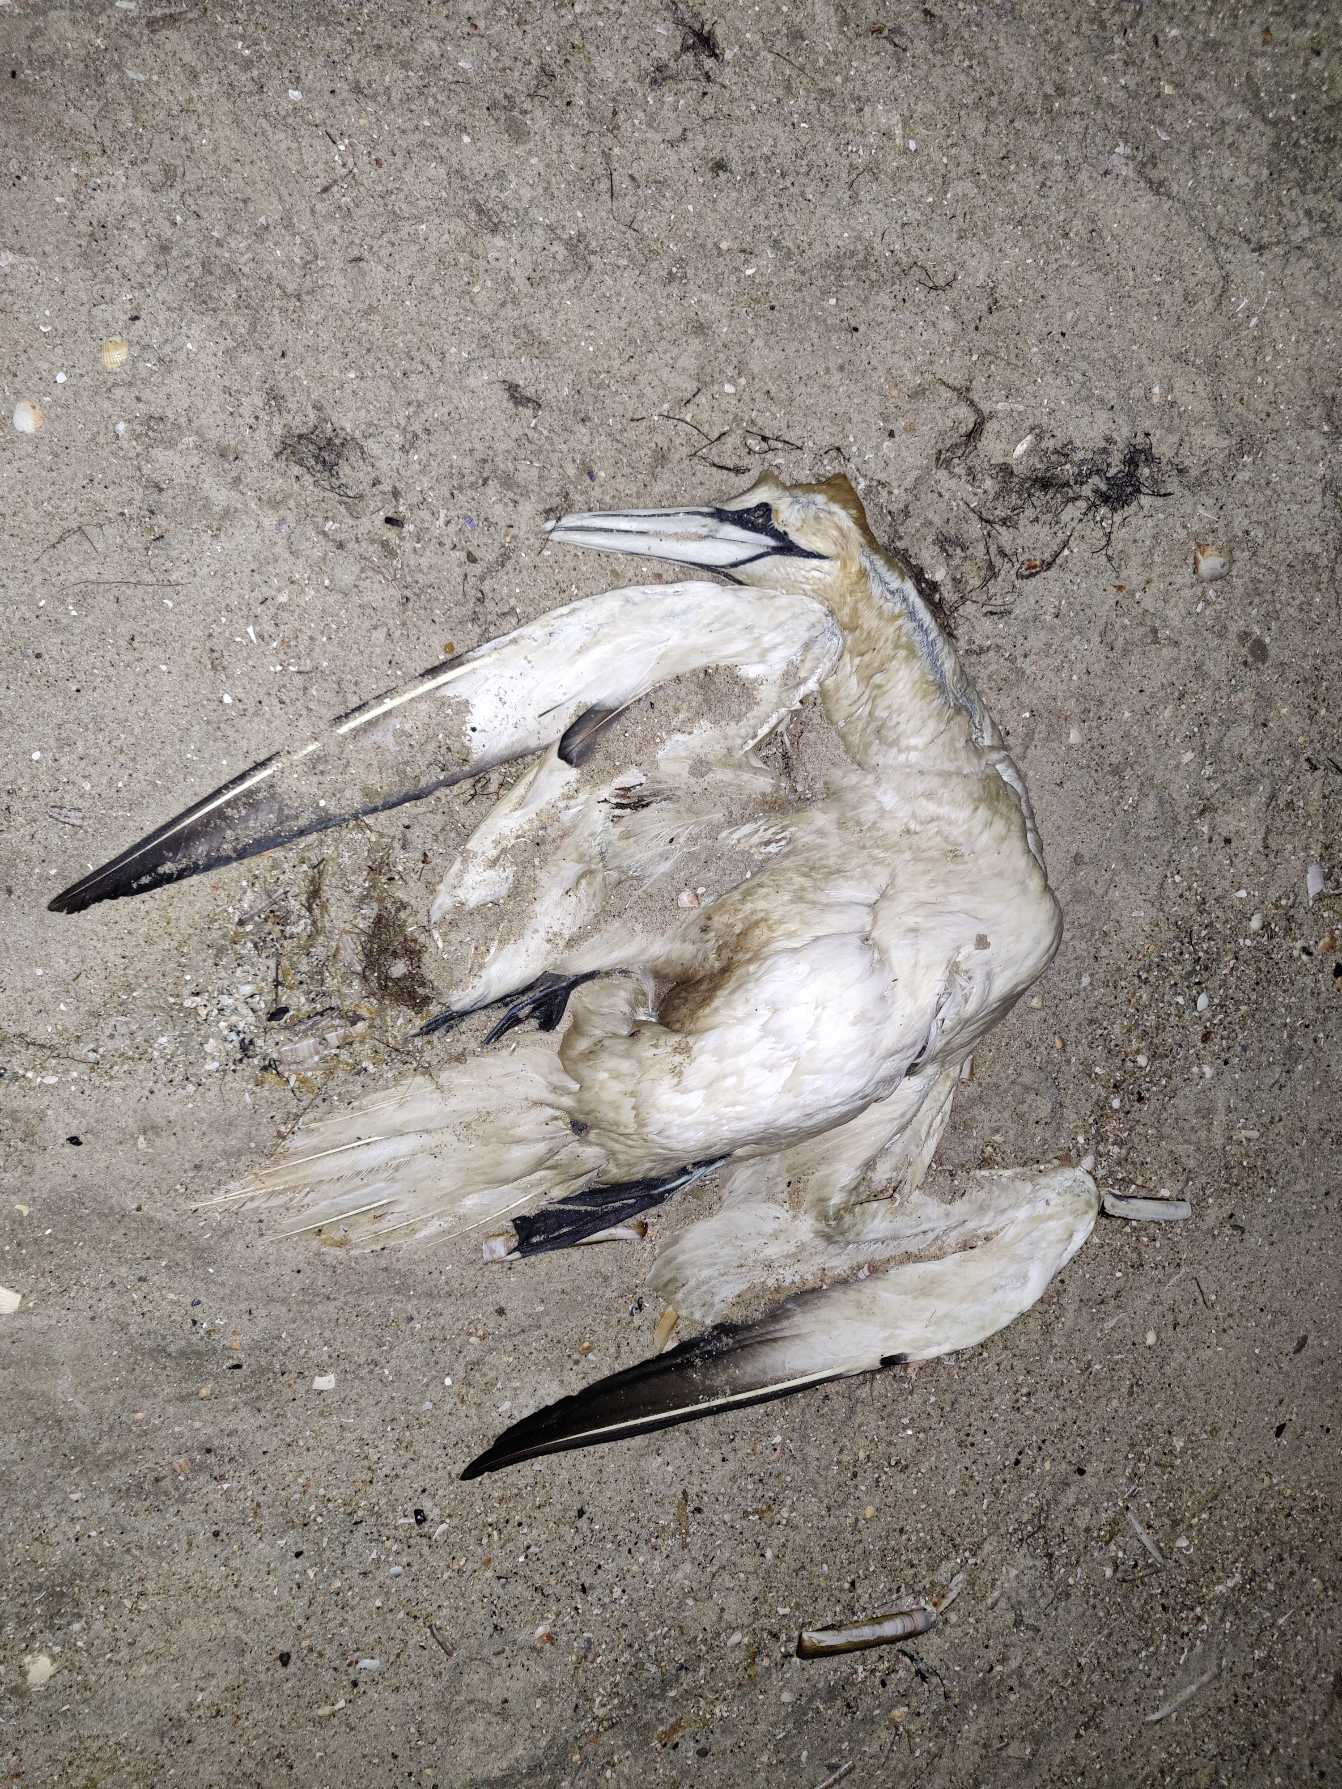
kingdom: Animalia
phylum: Chordata
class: Aves
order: Suliformes
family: Sulidae
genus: Morus
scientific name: Morus bassanus
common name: Sule
